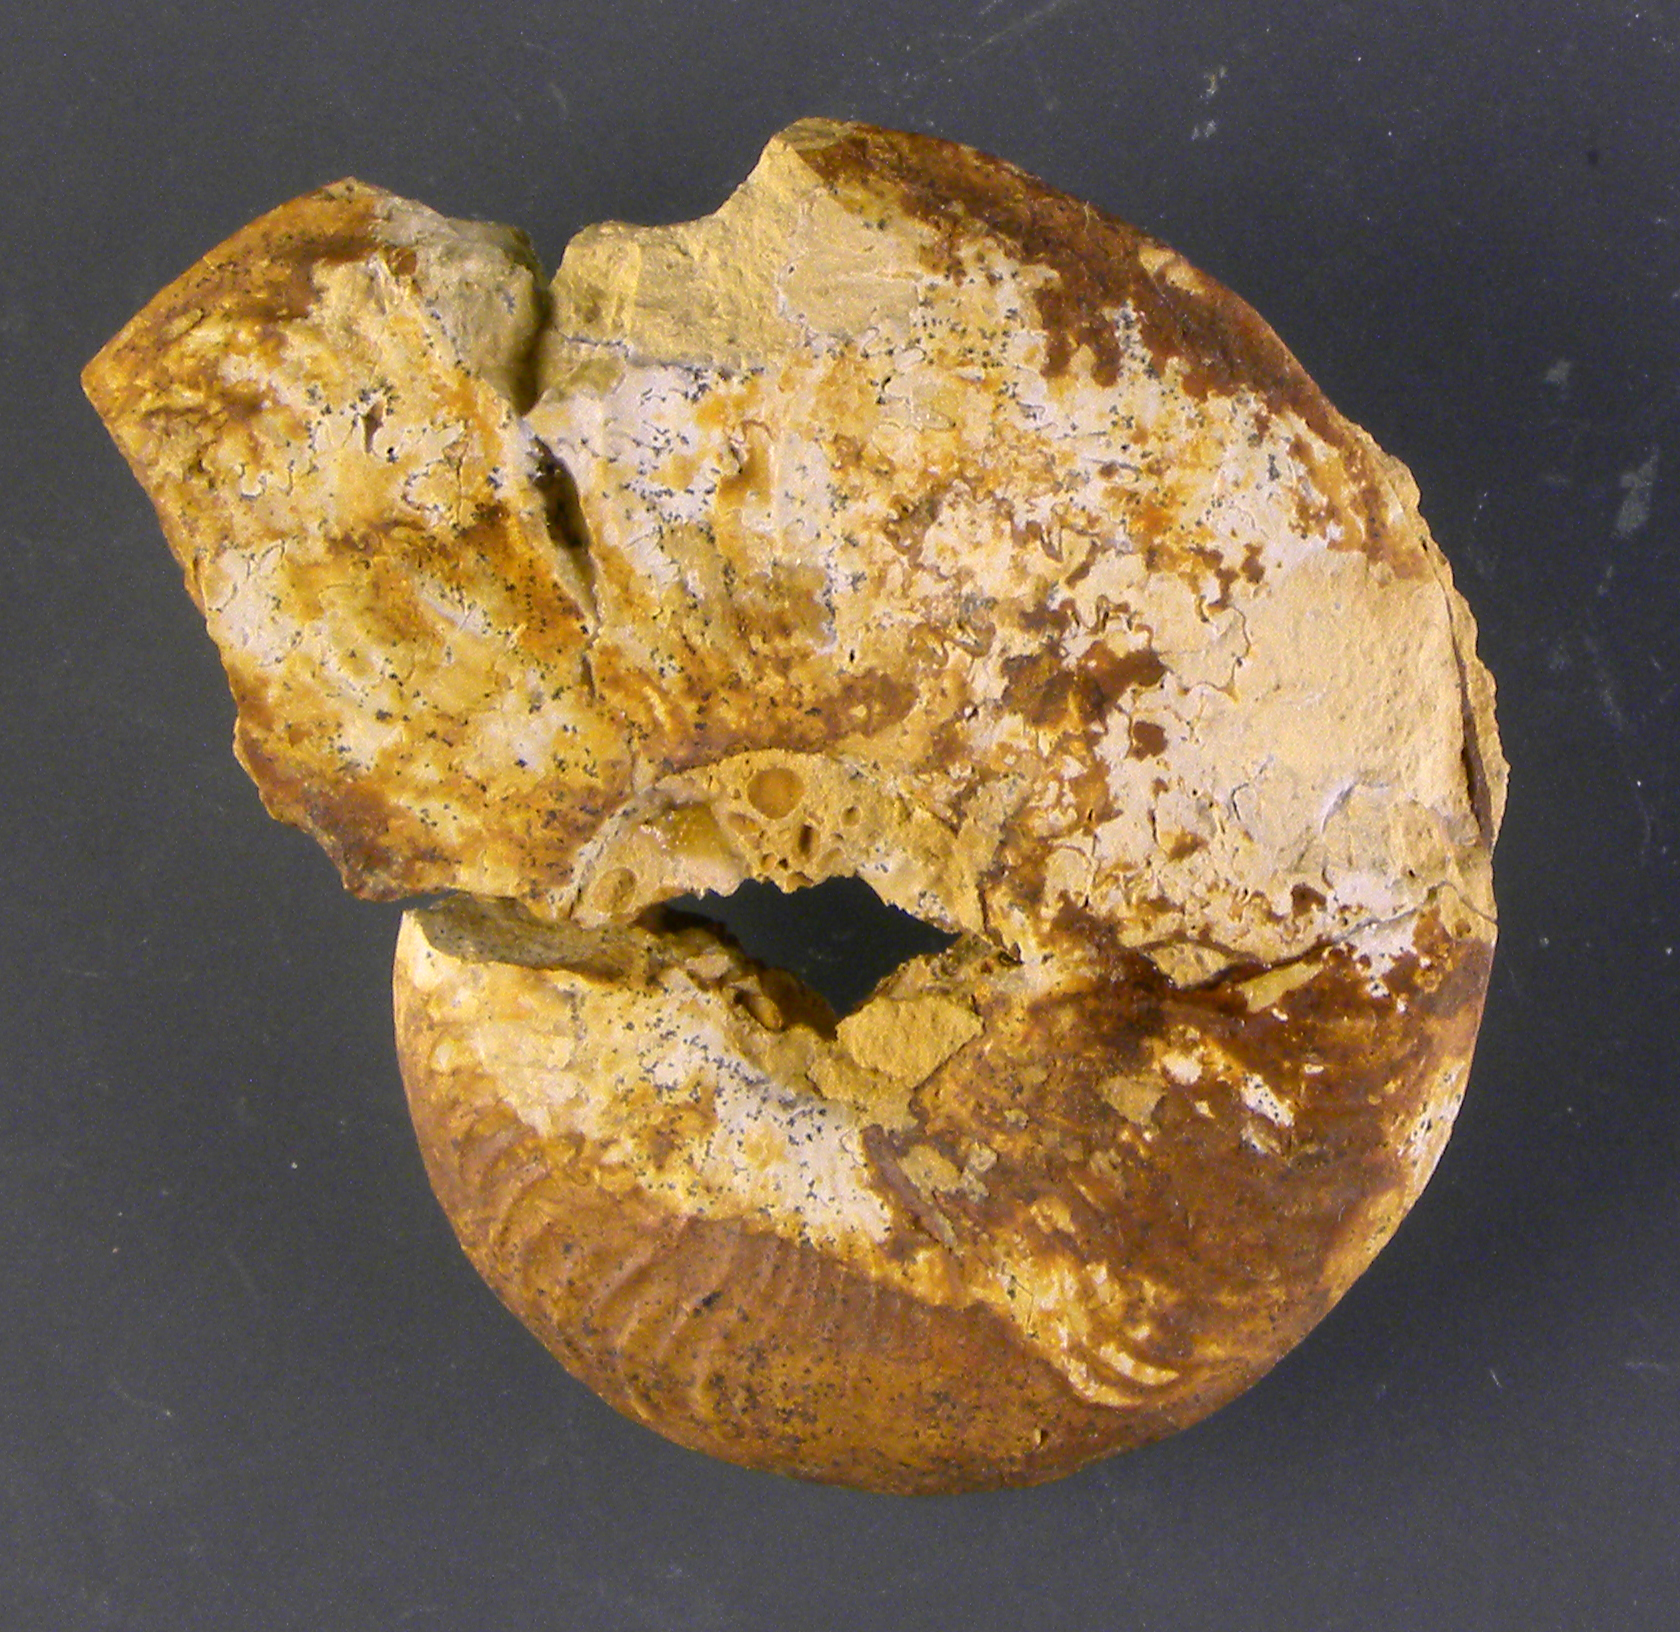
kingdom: Animalia
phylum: Mollusca
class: Cephalopoda
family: Hildoceratidae
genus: Pleydellia
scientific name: Pleydellia buckmani
